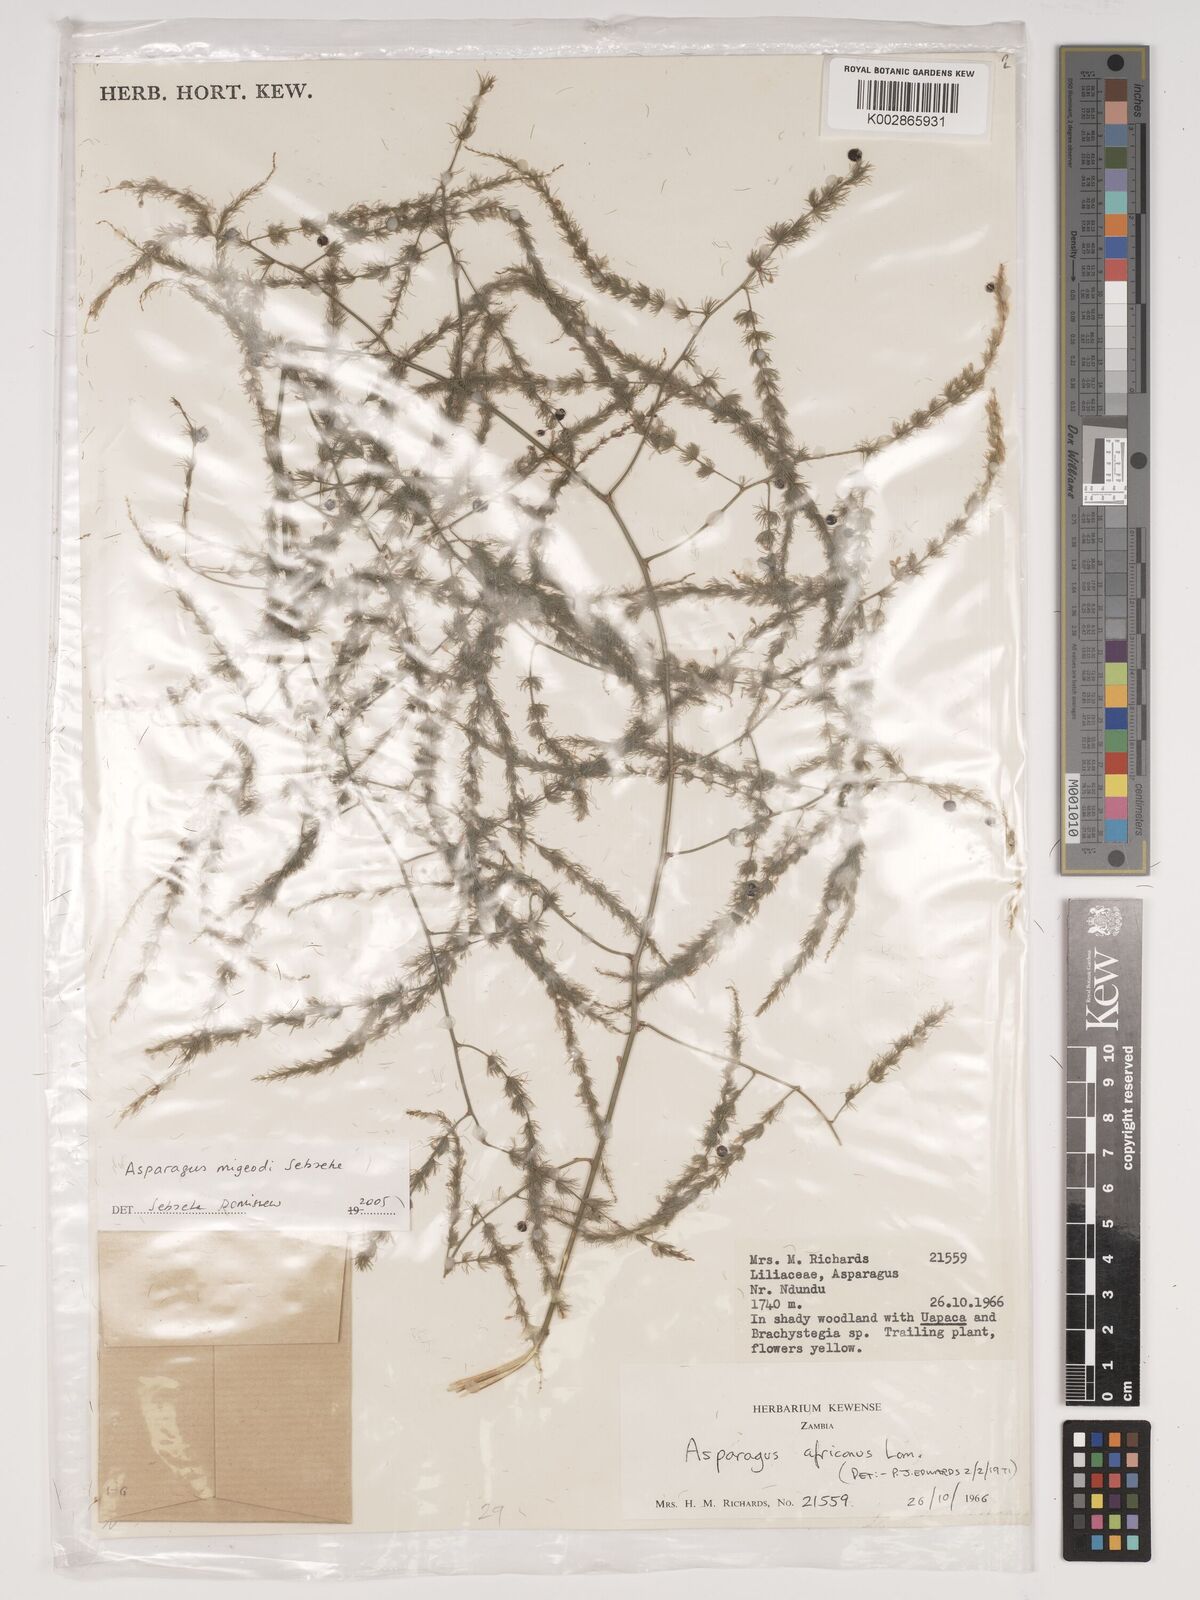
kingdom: Plantae
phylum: Tracheophyta
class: Liliopsida
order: Asparagales
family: Asparagaceae
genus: Asparagus
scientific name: Asparagus migeodii
